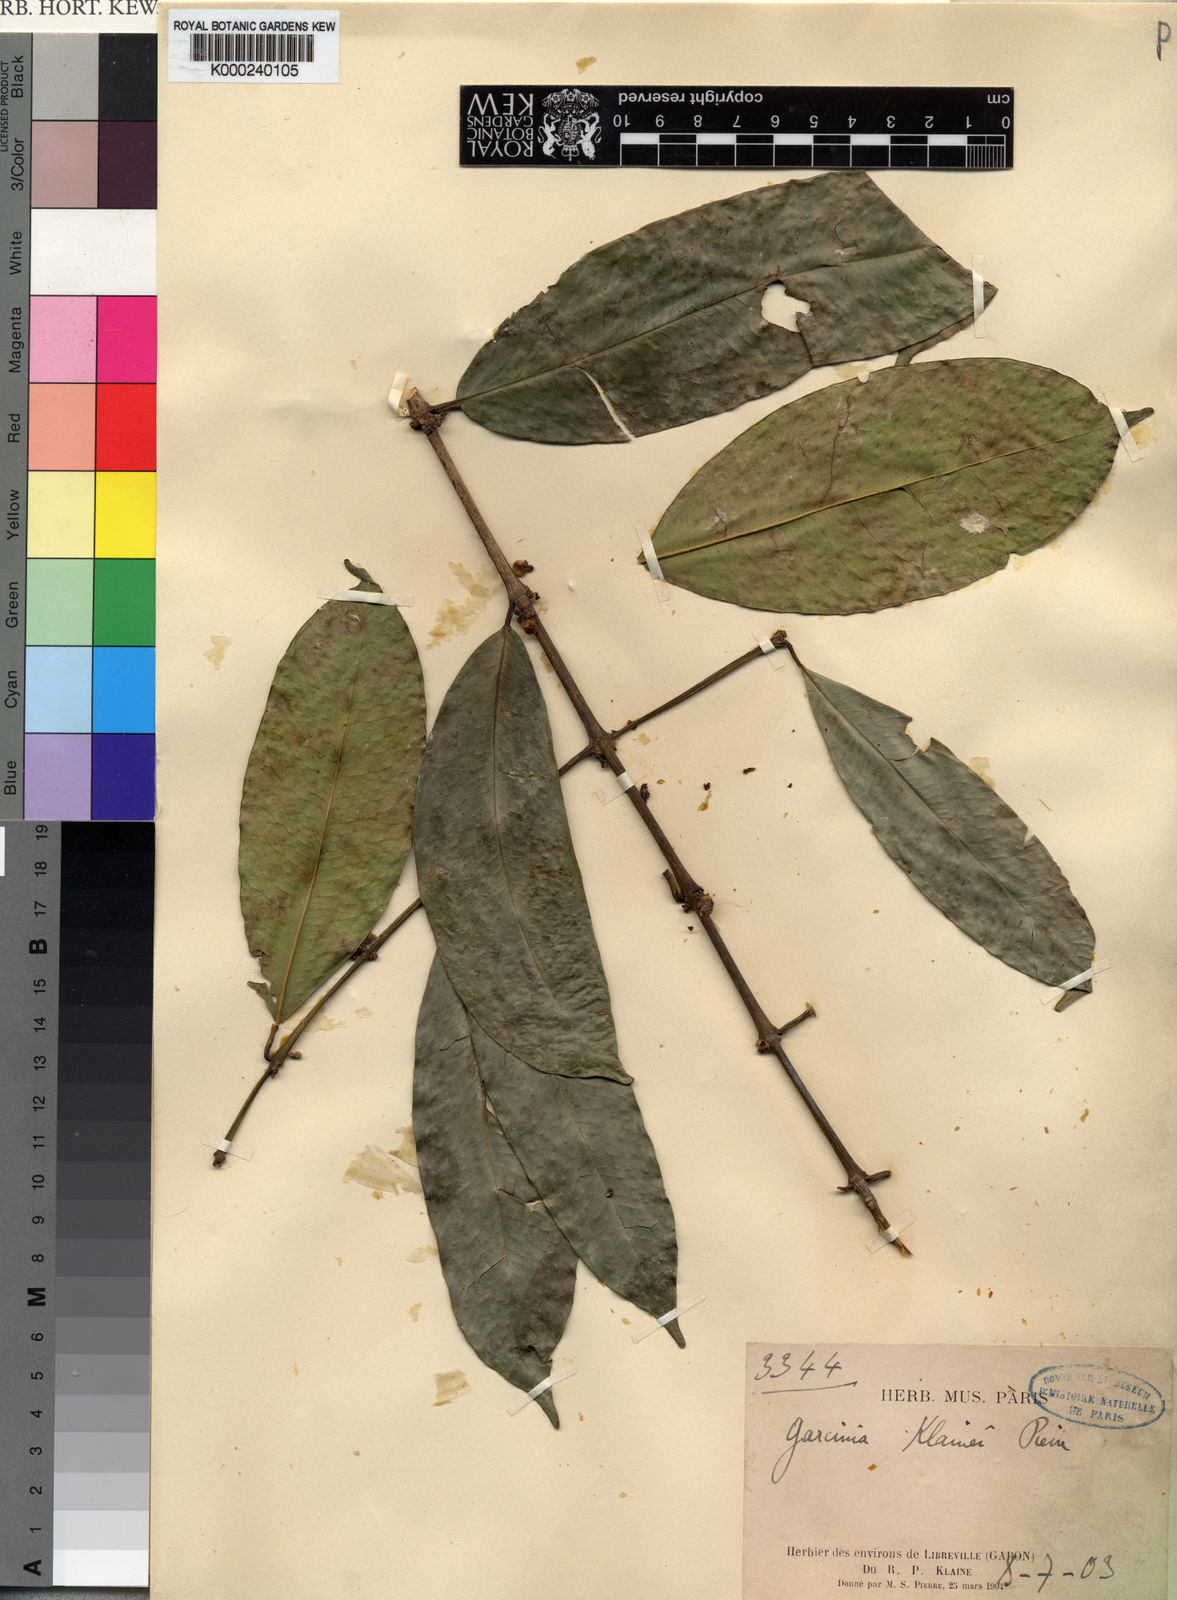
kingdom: Plantae
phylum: Tracheophyta
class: Magnoliopsida
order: Malpighiales
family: Clusiaceae
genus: Garcinia
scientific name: Garcinia epunctata
